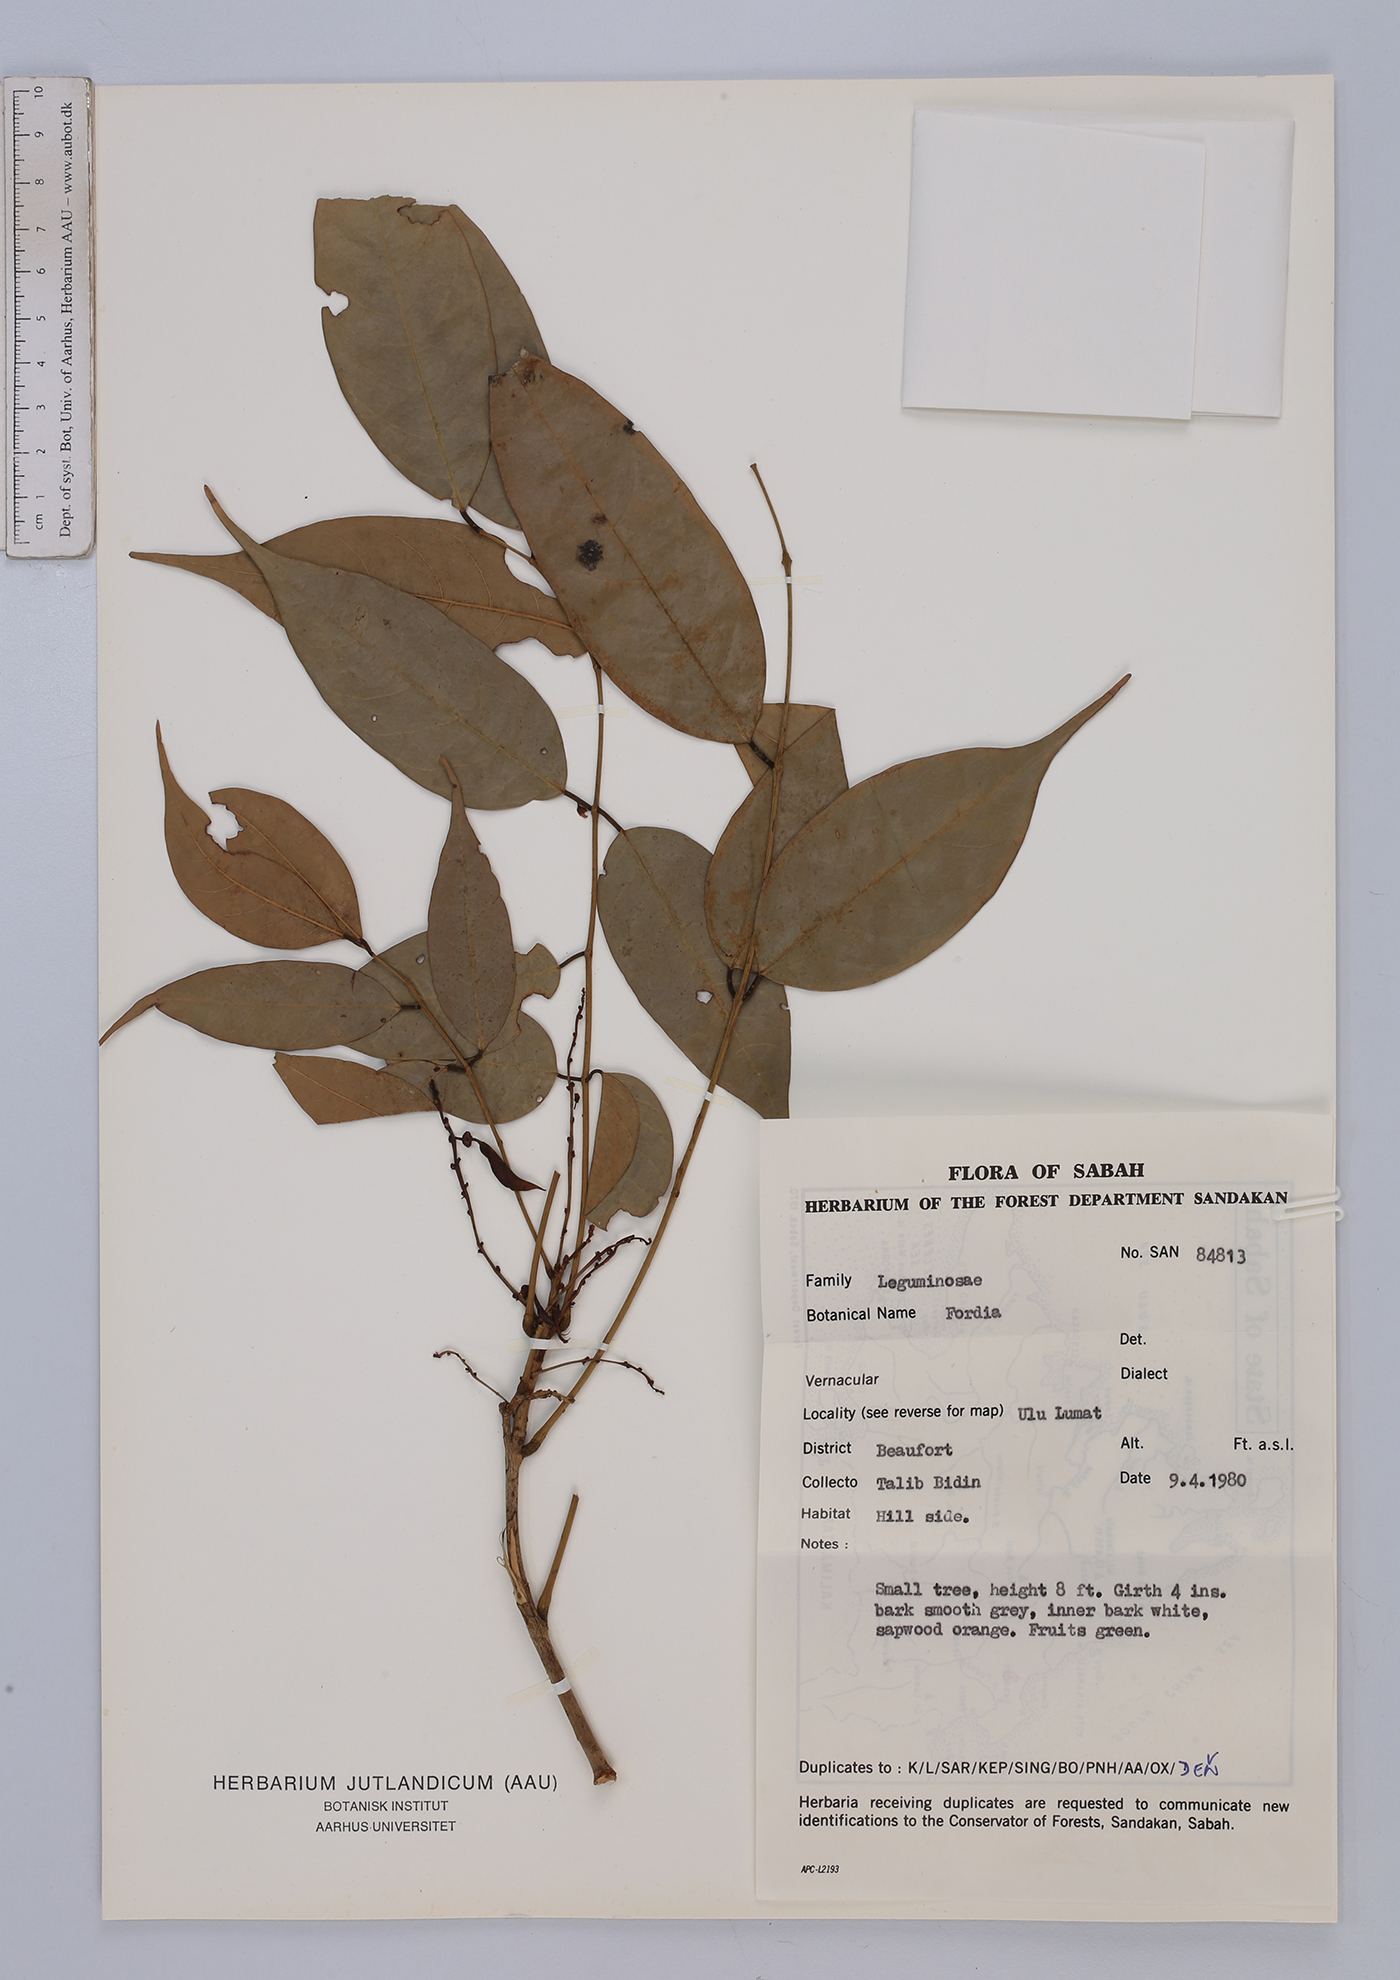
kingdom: Plantae
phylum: Tracheophyta
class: Magnoliopsida
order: Fabales
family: Fabaceae
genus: Fordia
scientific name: Fordia
